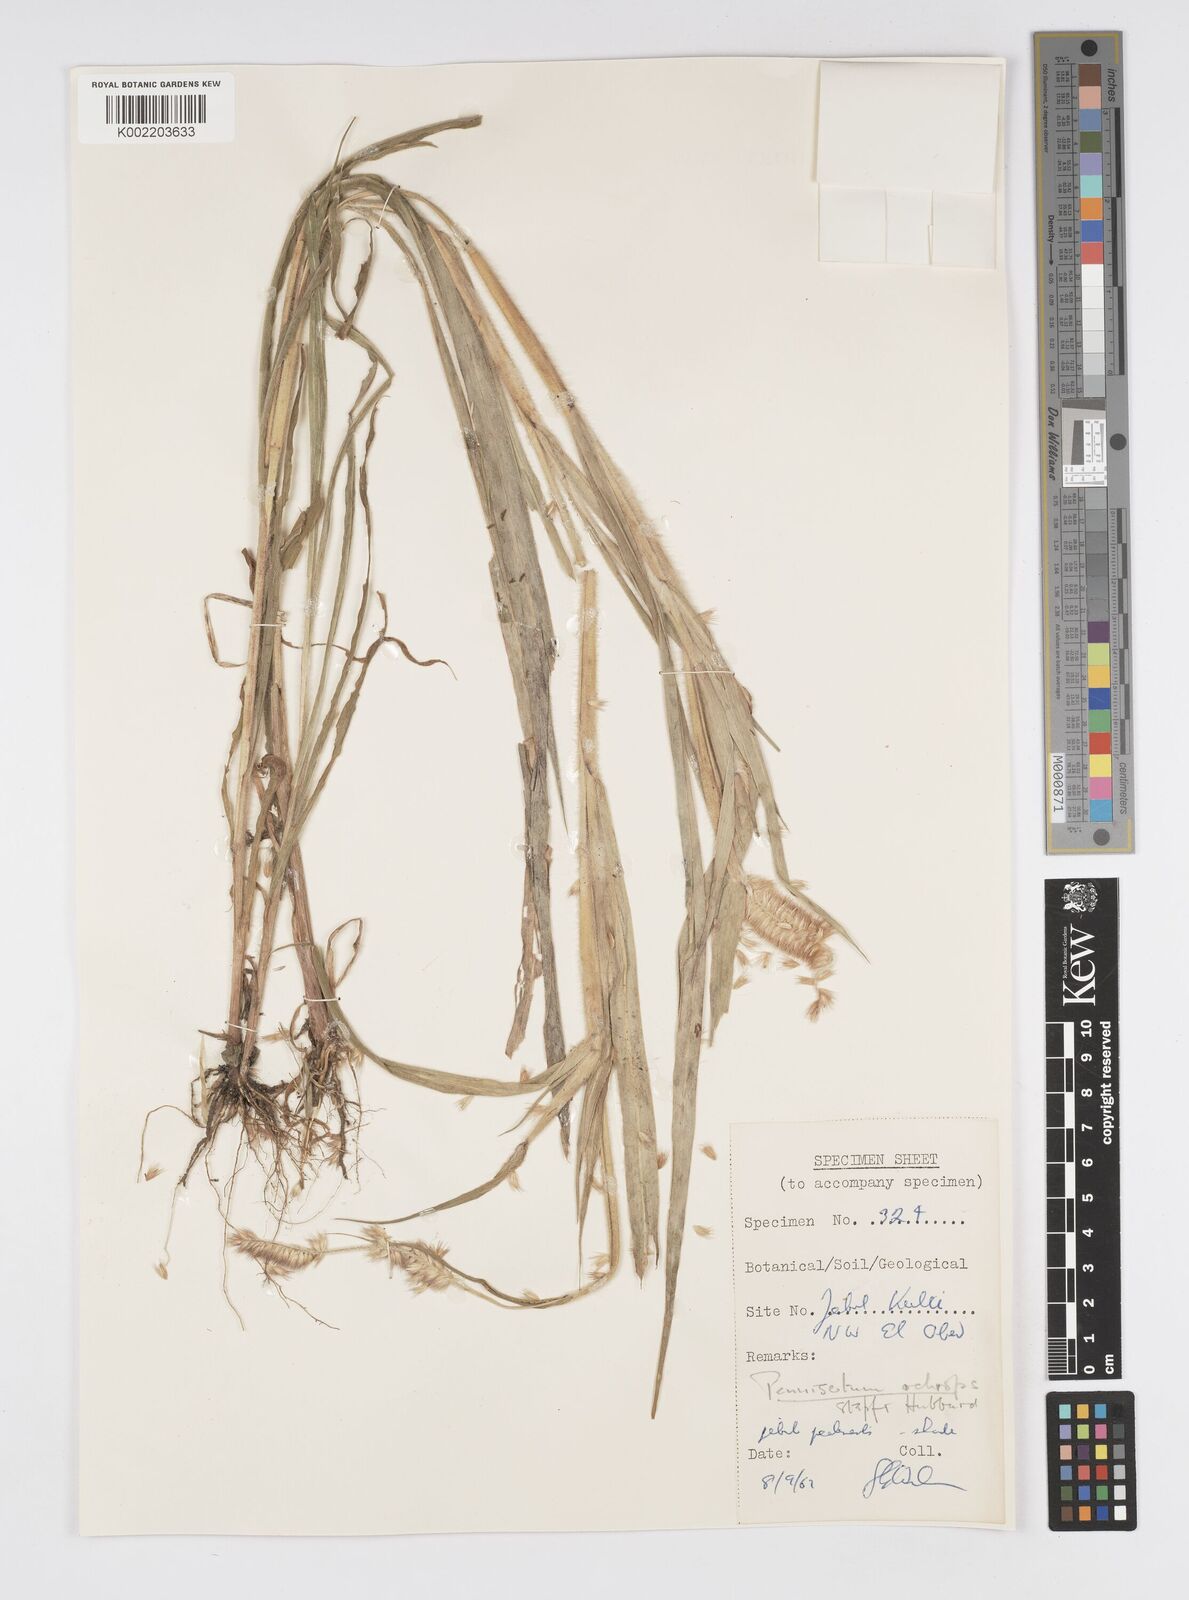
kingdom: Plantae
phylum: Tracheophyta
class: Liliopsida
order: Poales
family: Poaceae
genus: Cenchrus
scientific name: Cenchrus violaceus
